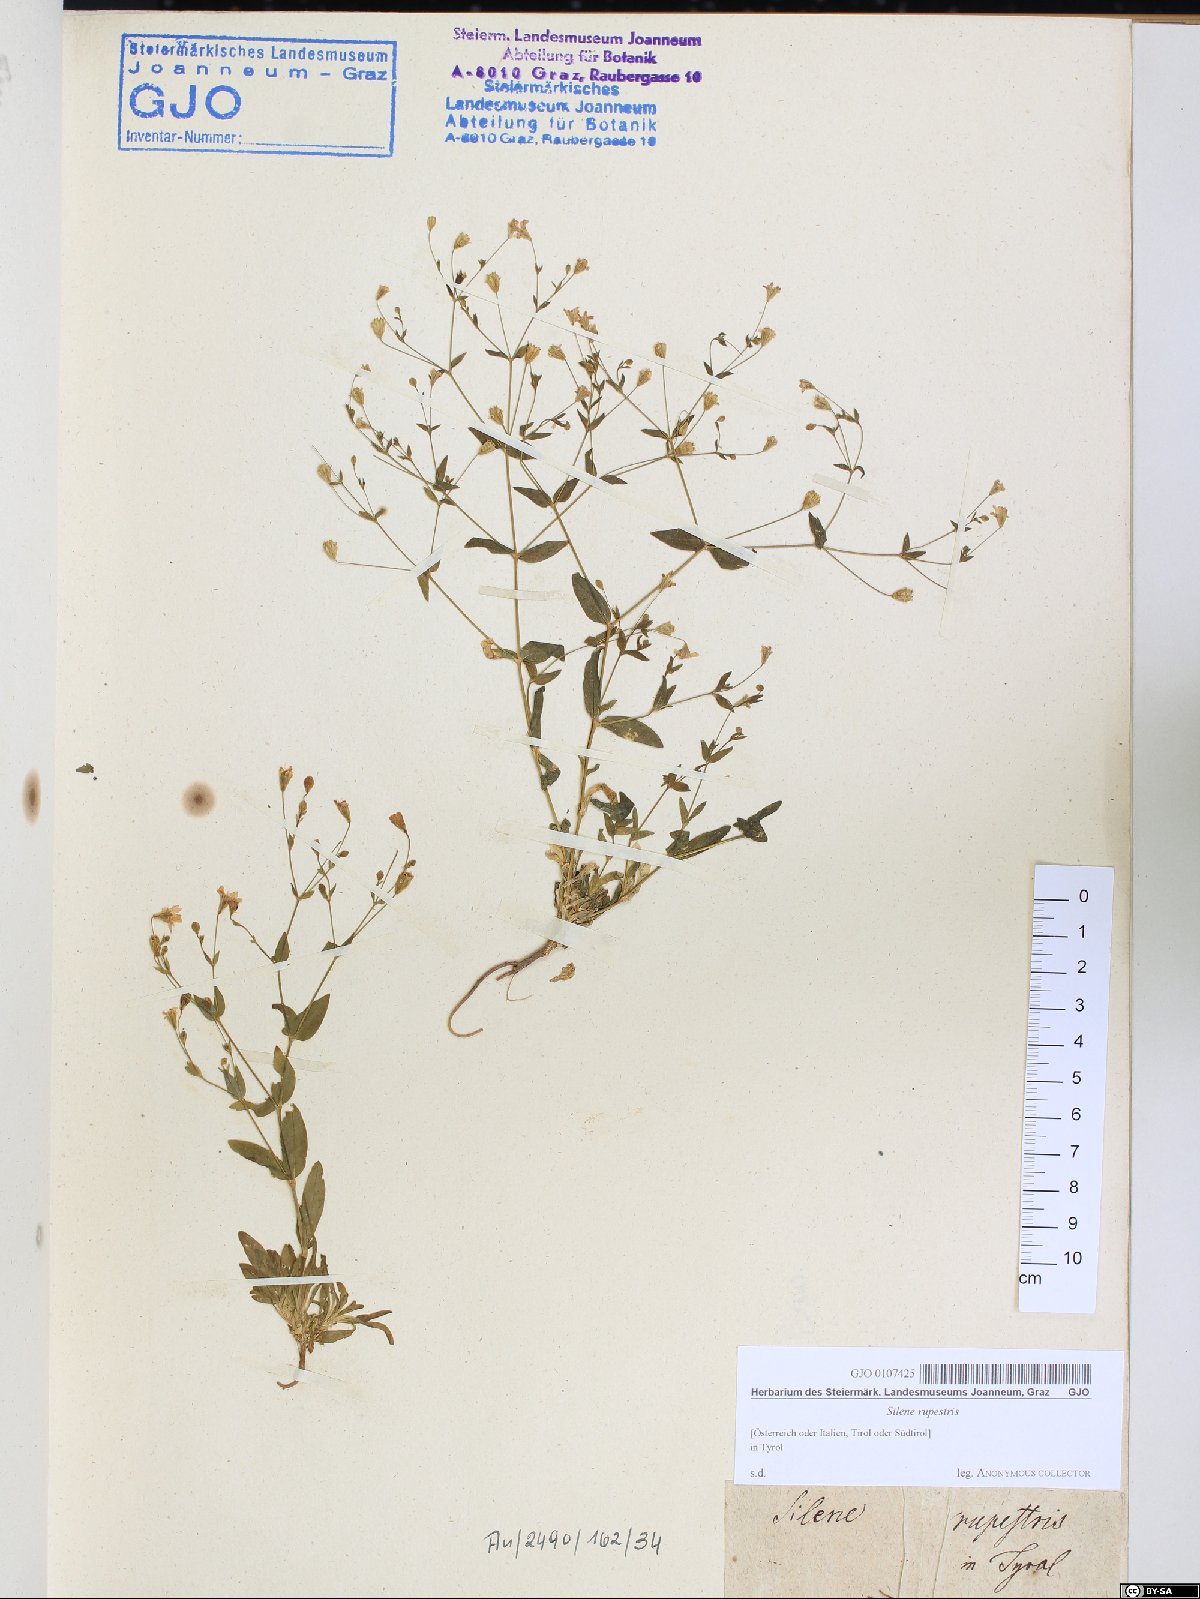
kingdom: Plantae
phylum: Tracheophyta
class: Magnoliopsida
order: Caryophyllales
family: Caryophyllaceae
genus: Atocion
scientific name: Atocion rupestre
